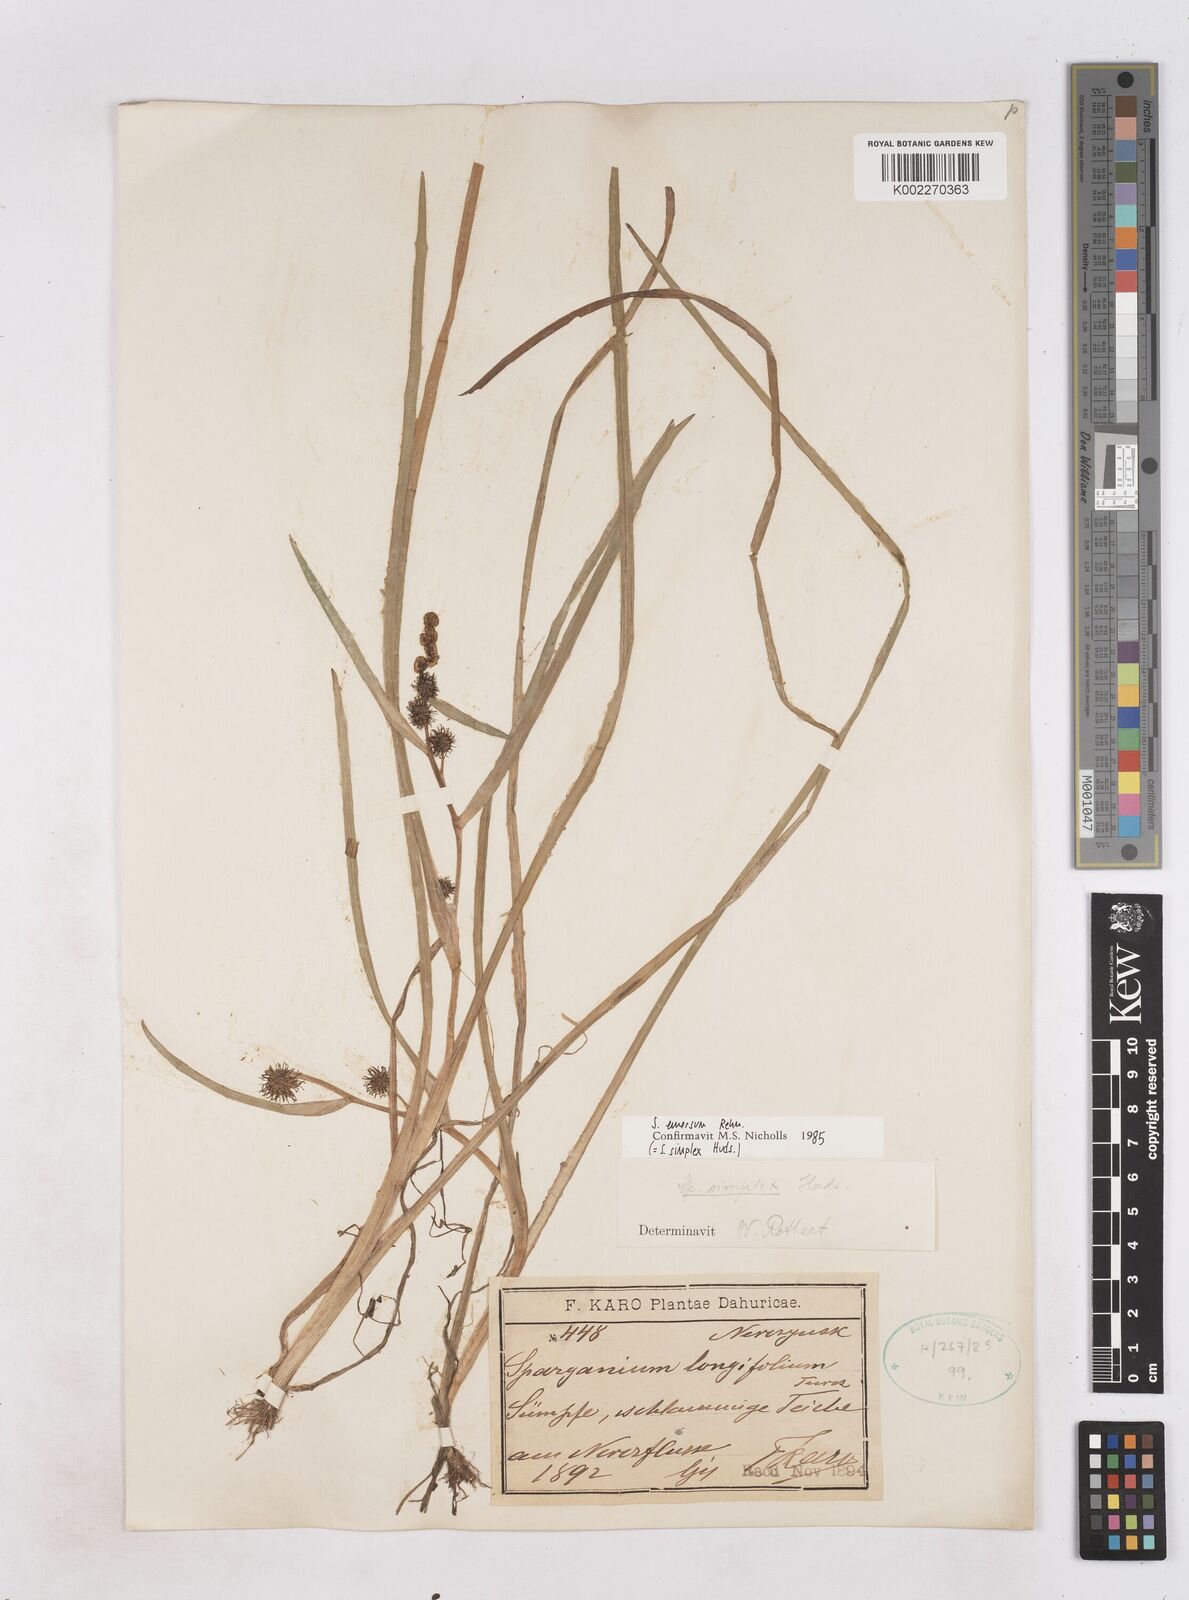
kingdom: Plantae
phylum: Tracheophyta
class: Liliopsida
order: Poales
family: Typhaceae
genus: Sparganium
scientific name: Sparganium longifolium
